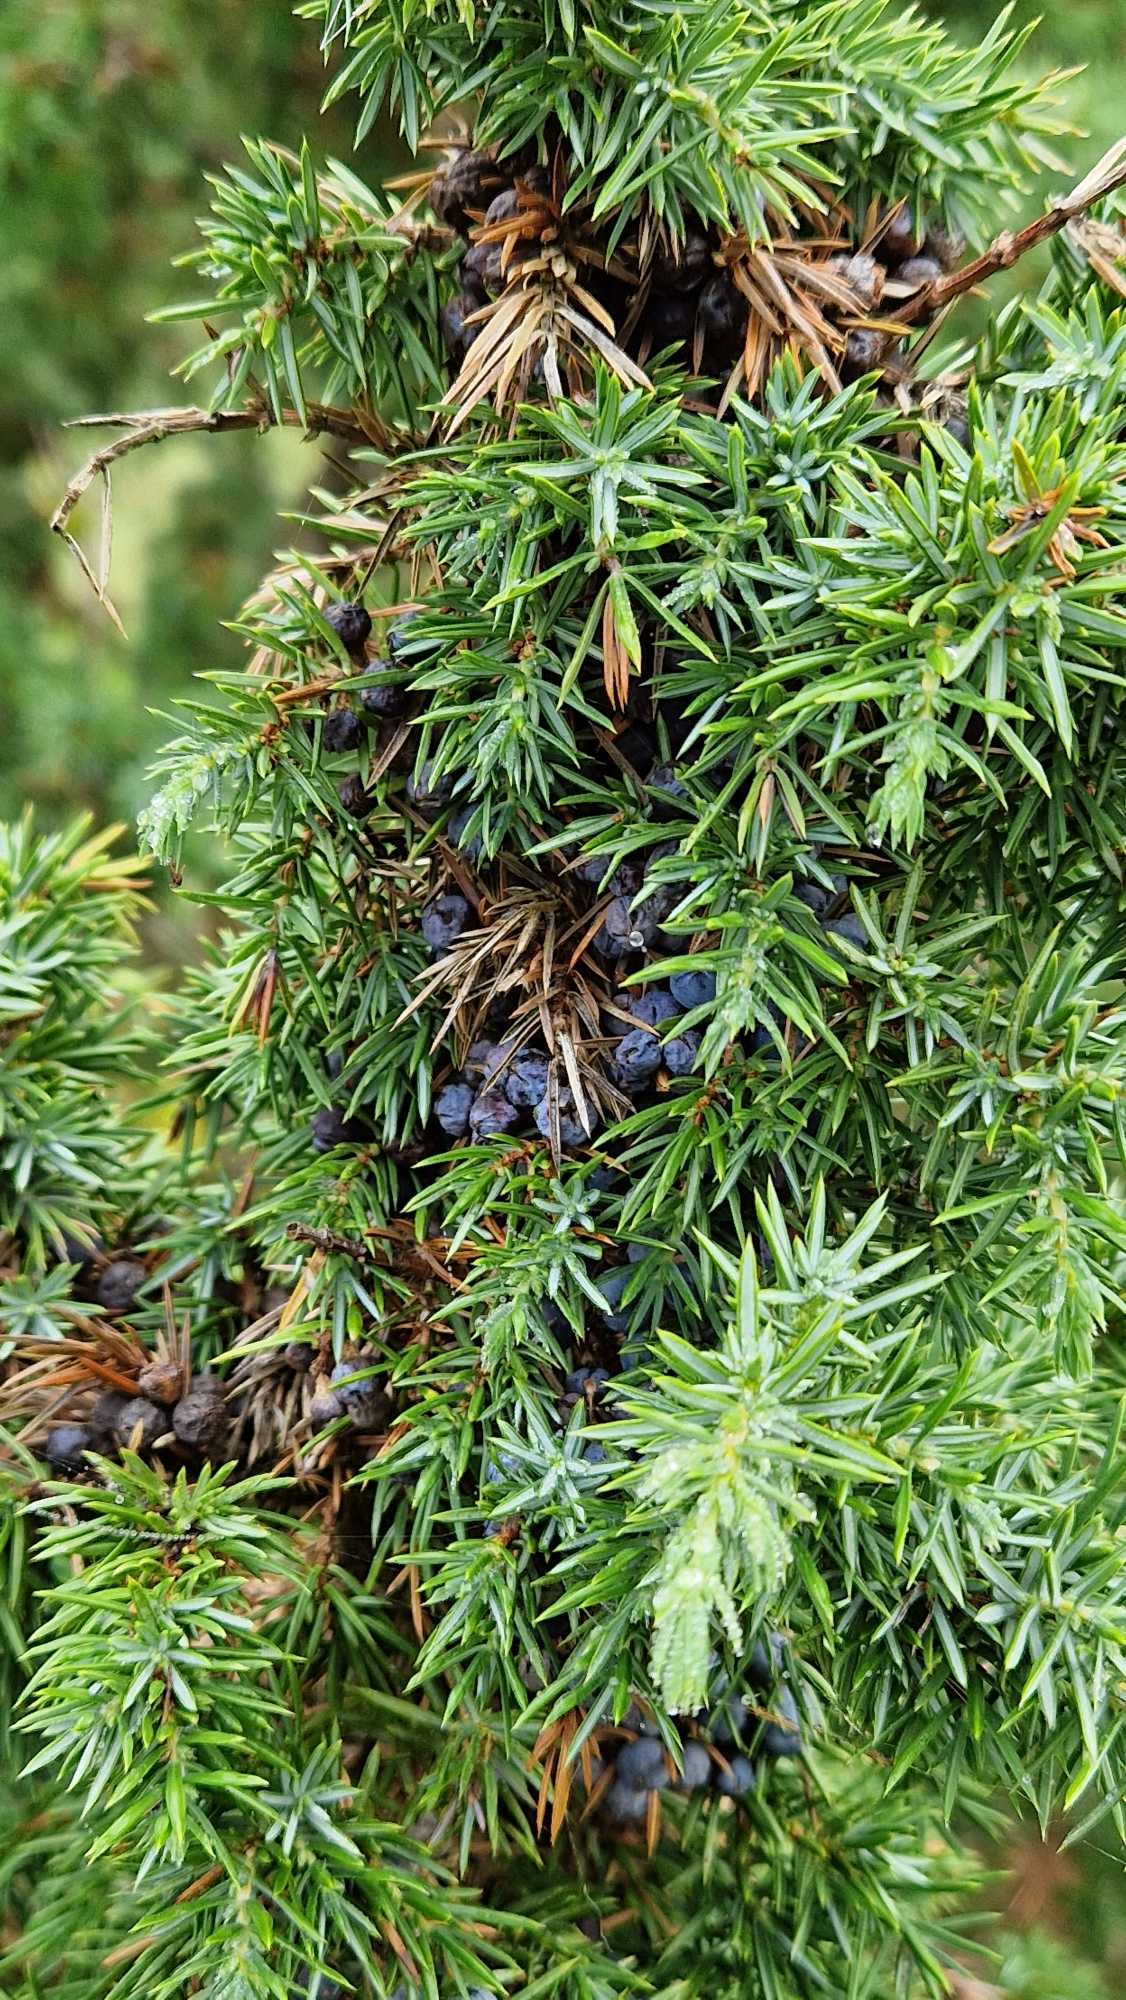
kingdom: Plantae
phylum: Tracheophyta
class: Pinopsida
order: Pinales
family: Cupressaceae
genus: Juniperus
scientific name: Juniperus communis
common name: Almindelig ene
